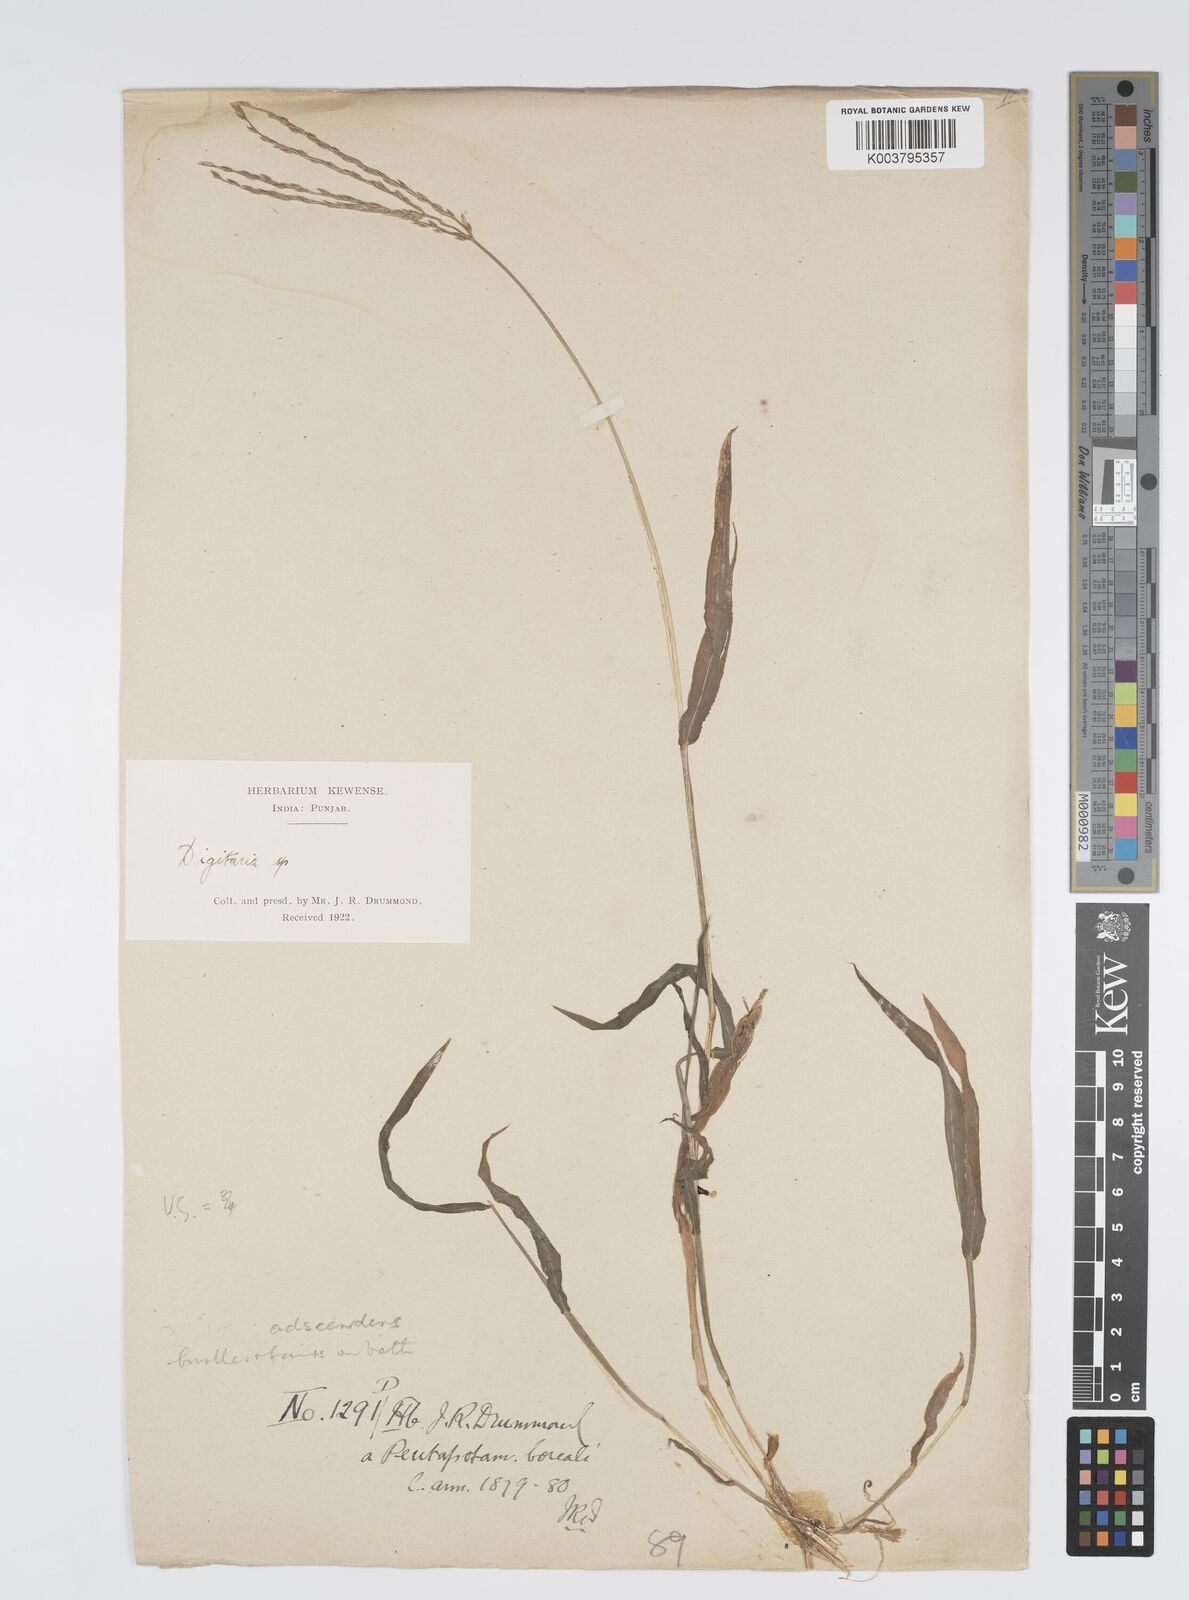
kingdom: Plantae
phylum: Tracheophyta
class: Liliopsida
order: Poales
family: Poaceae
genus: Digitaria
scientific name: Digitaria ciliaris
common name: Tropical finger-grass
